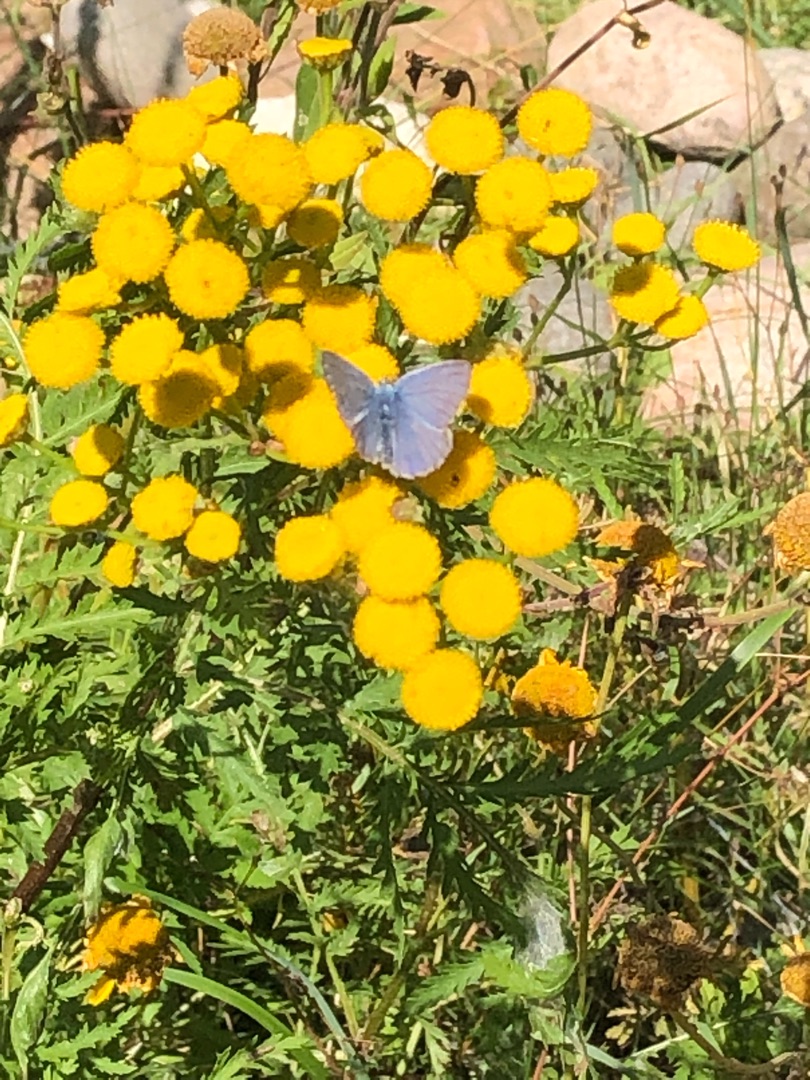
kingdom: Animalia
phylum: Arthropoda
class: Insecta
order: Lepidoptera
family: Lycaenidae
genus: Polyommatus
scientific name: Polyommatus icarus
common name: Almindelig blåfugl
